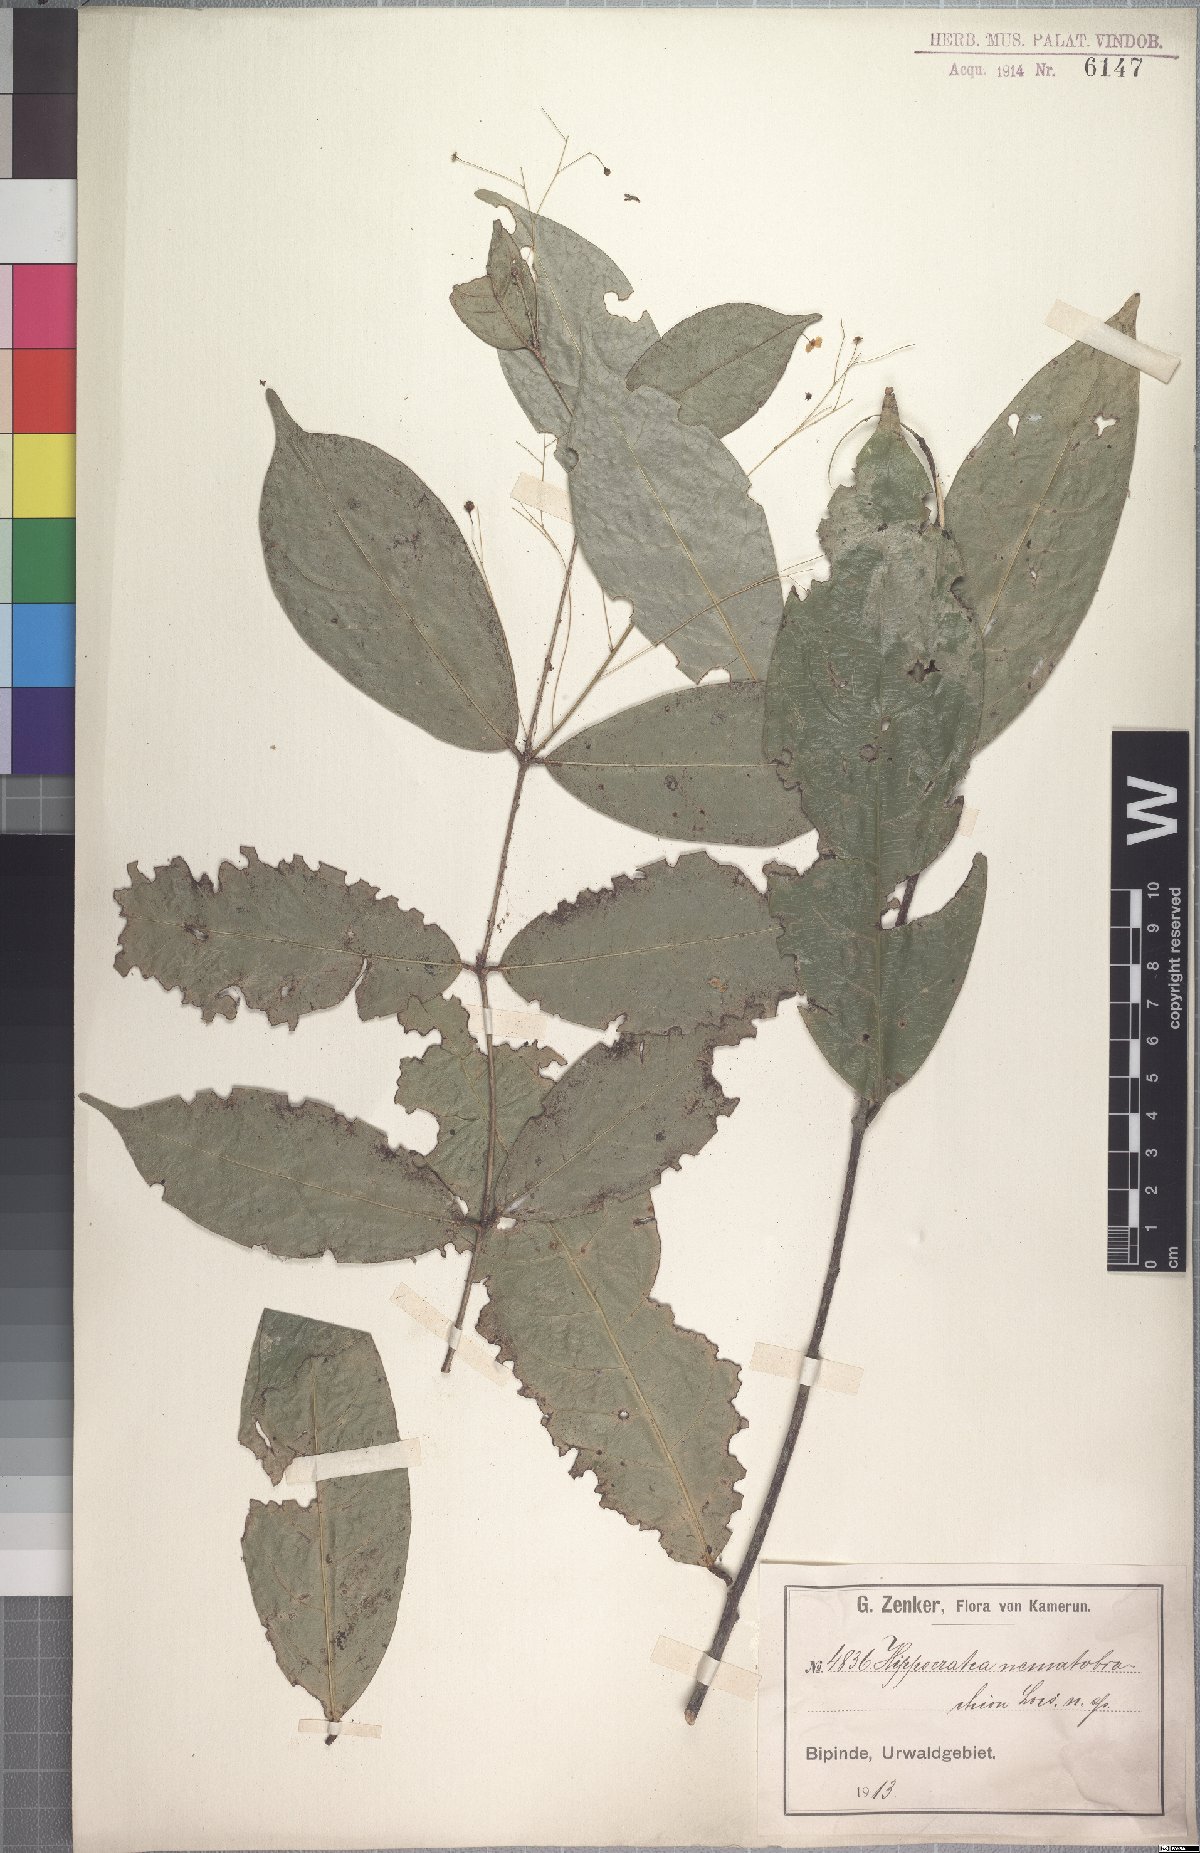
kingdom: Plantae
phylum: Tracheophyta
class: Magnoliopsida
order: Celastrales
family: Celastraceae
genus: Thyrsosalacia
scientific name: Thyrsosalacia nematobrachion
